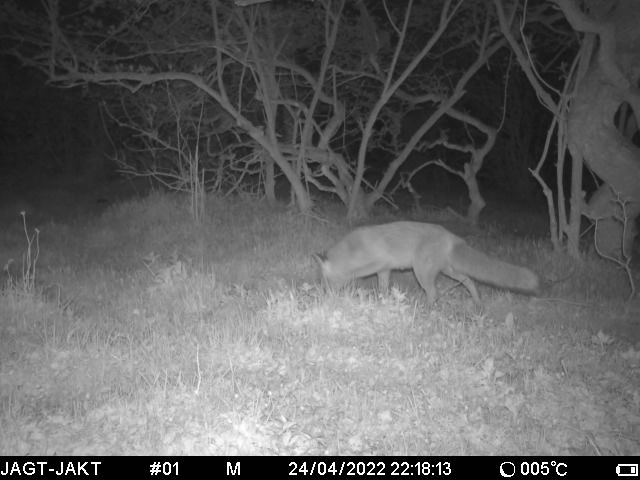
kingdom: Animalia
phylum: Chordata
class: Mammalia
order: Carnivora
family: Canidae
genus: Vulpes
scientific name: Vulpes vulpes
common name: Ræv
